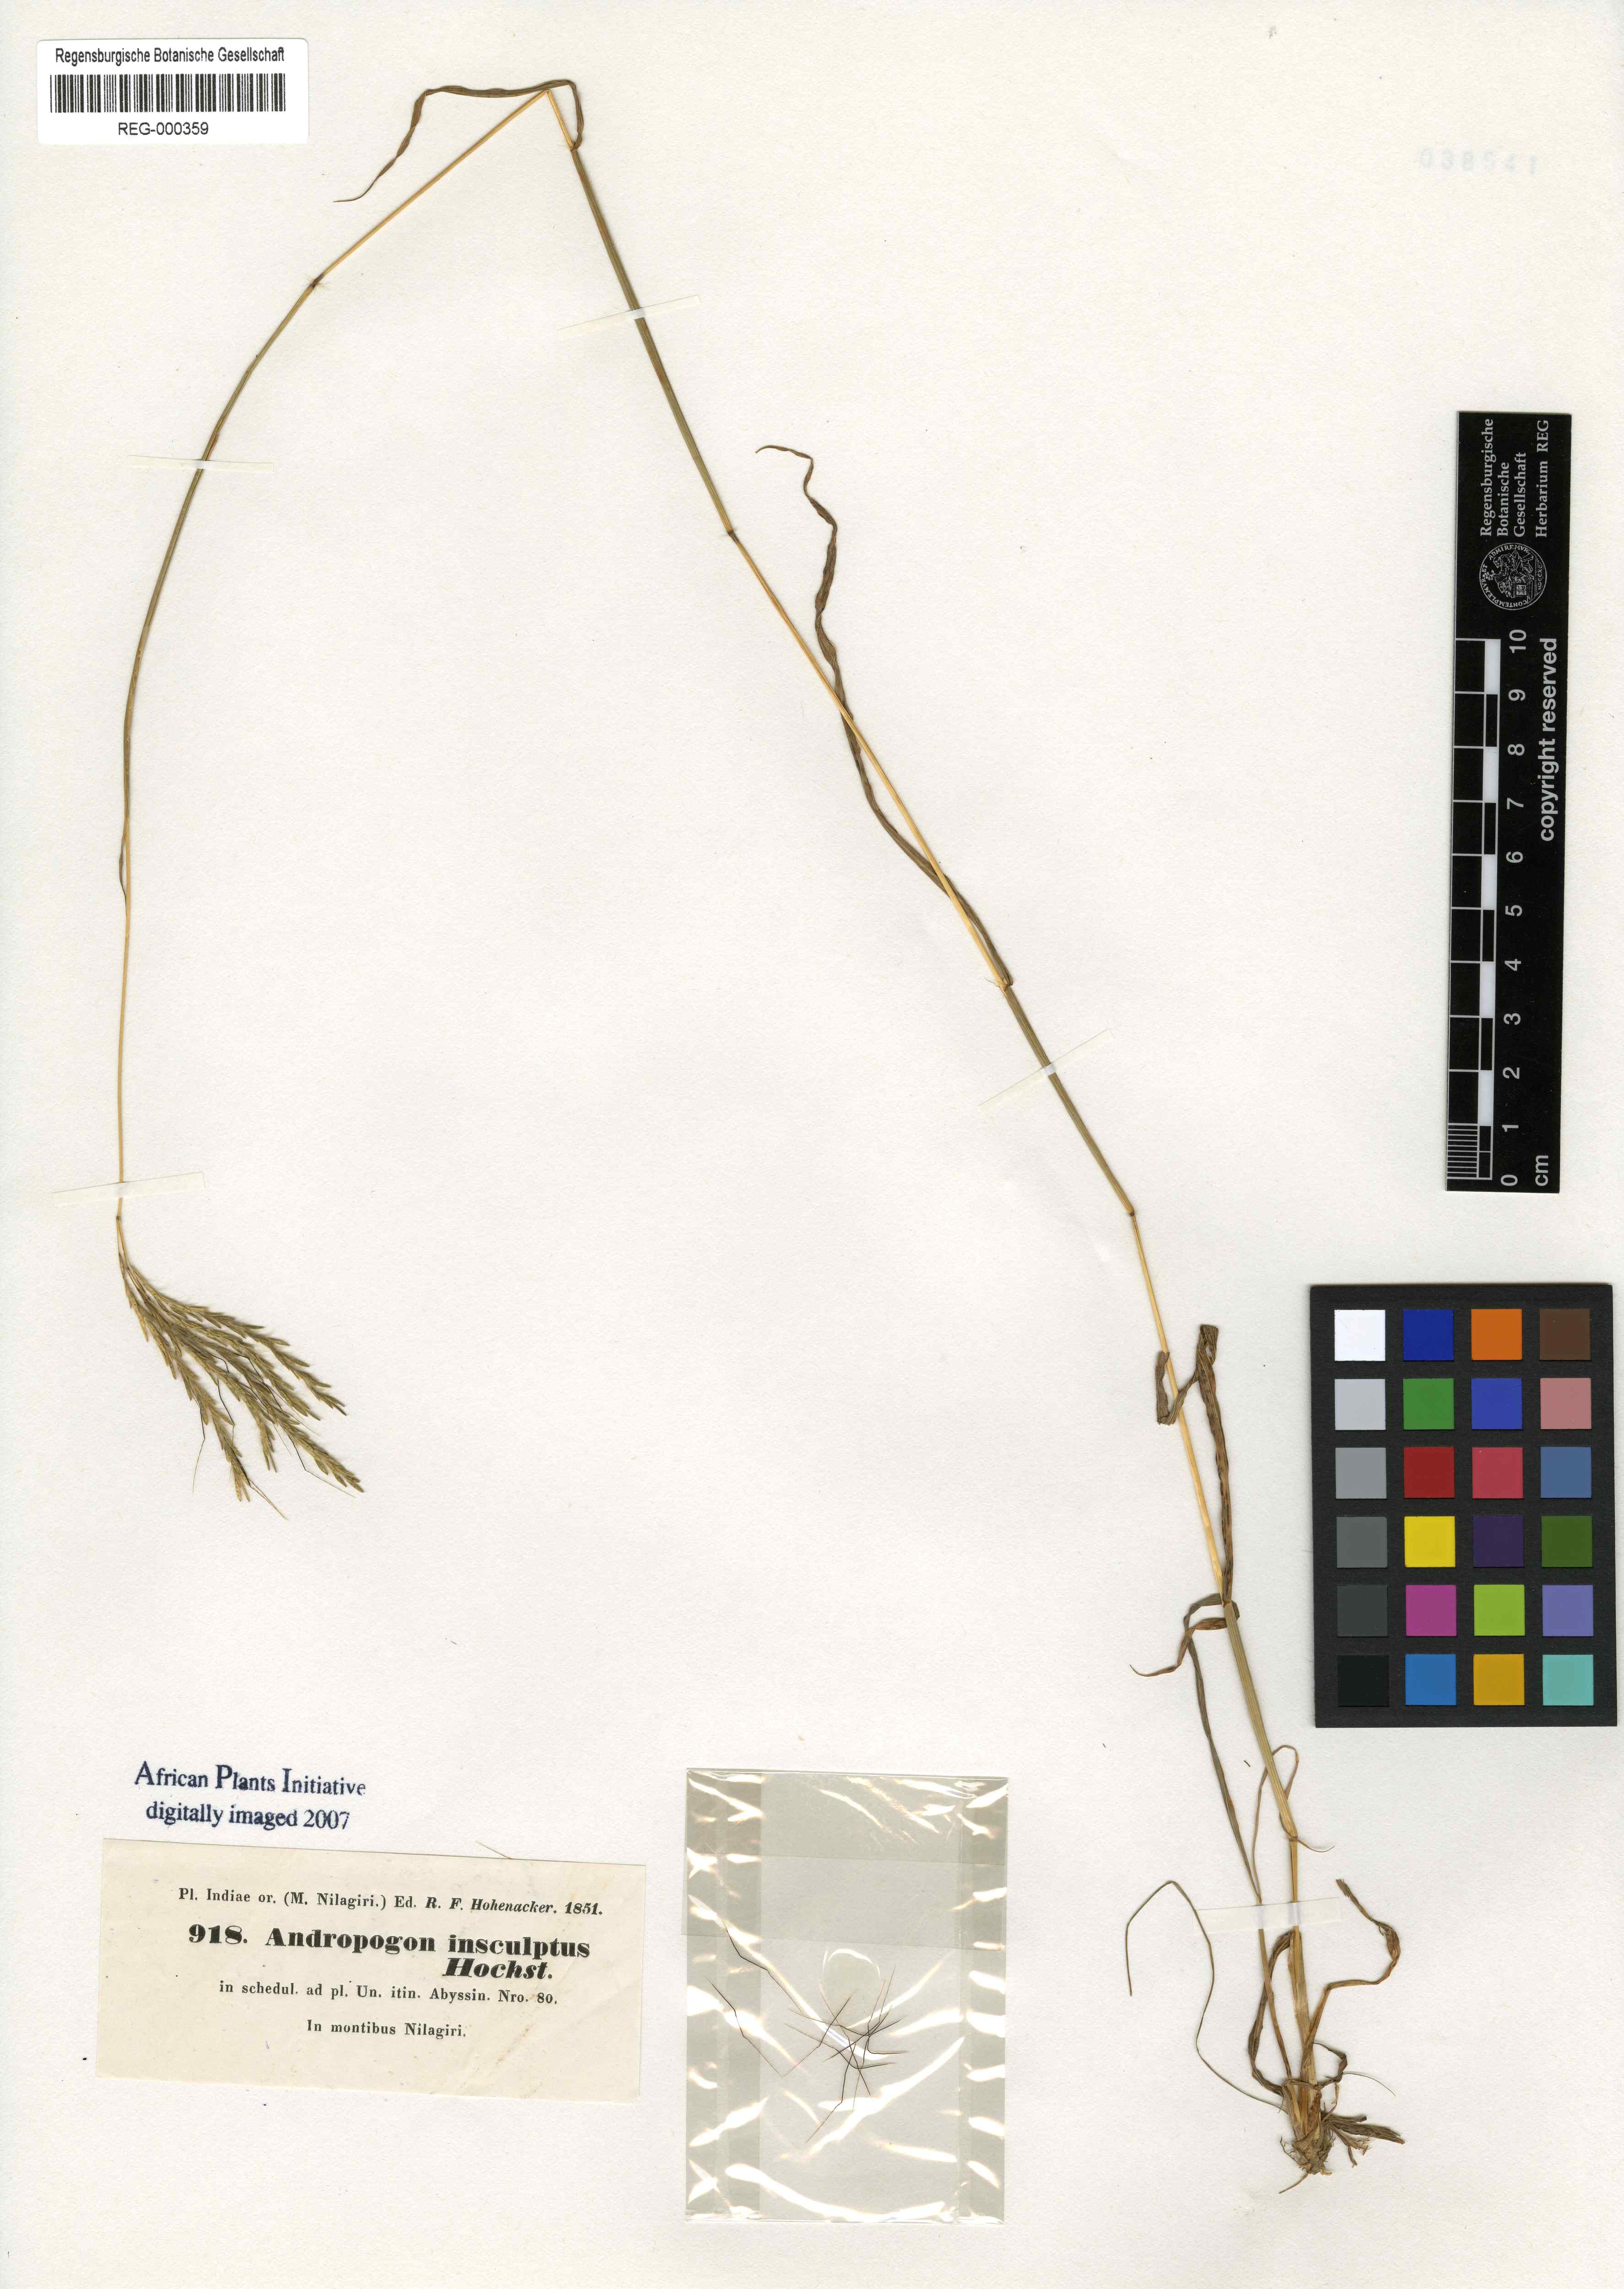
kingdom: Plantae
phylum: Tracheophyta
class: Liliopsida
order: Poales
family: Poaceae
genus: Bothriochloa
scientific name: Bothriochloa insculpta
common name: Creeping-bluegrass
